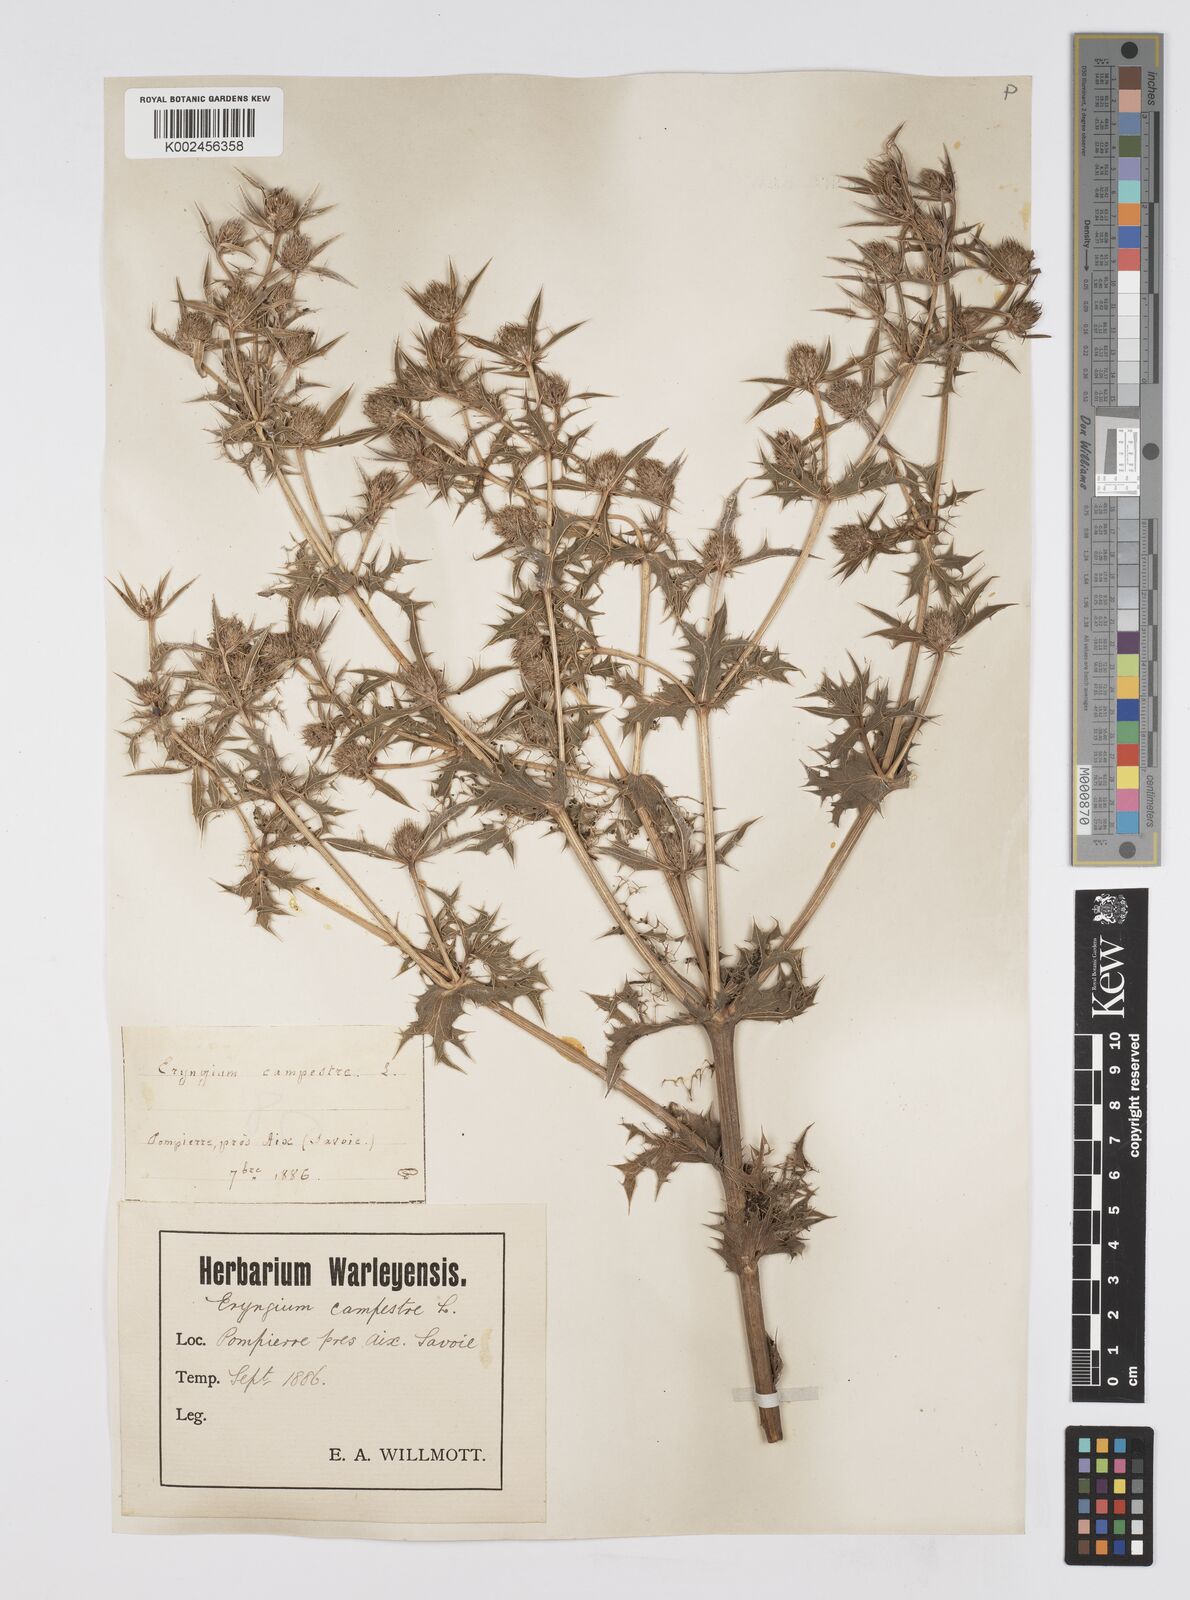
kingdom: Plantae
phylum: Tracheophyta
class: Magnoliopsida
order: Apiales
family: Apiaceae
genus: Eryngium
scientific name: Eryngium campestre
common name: Field eryngo
